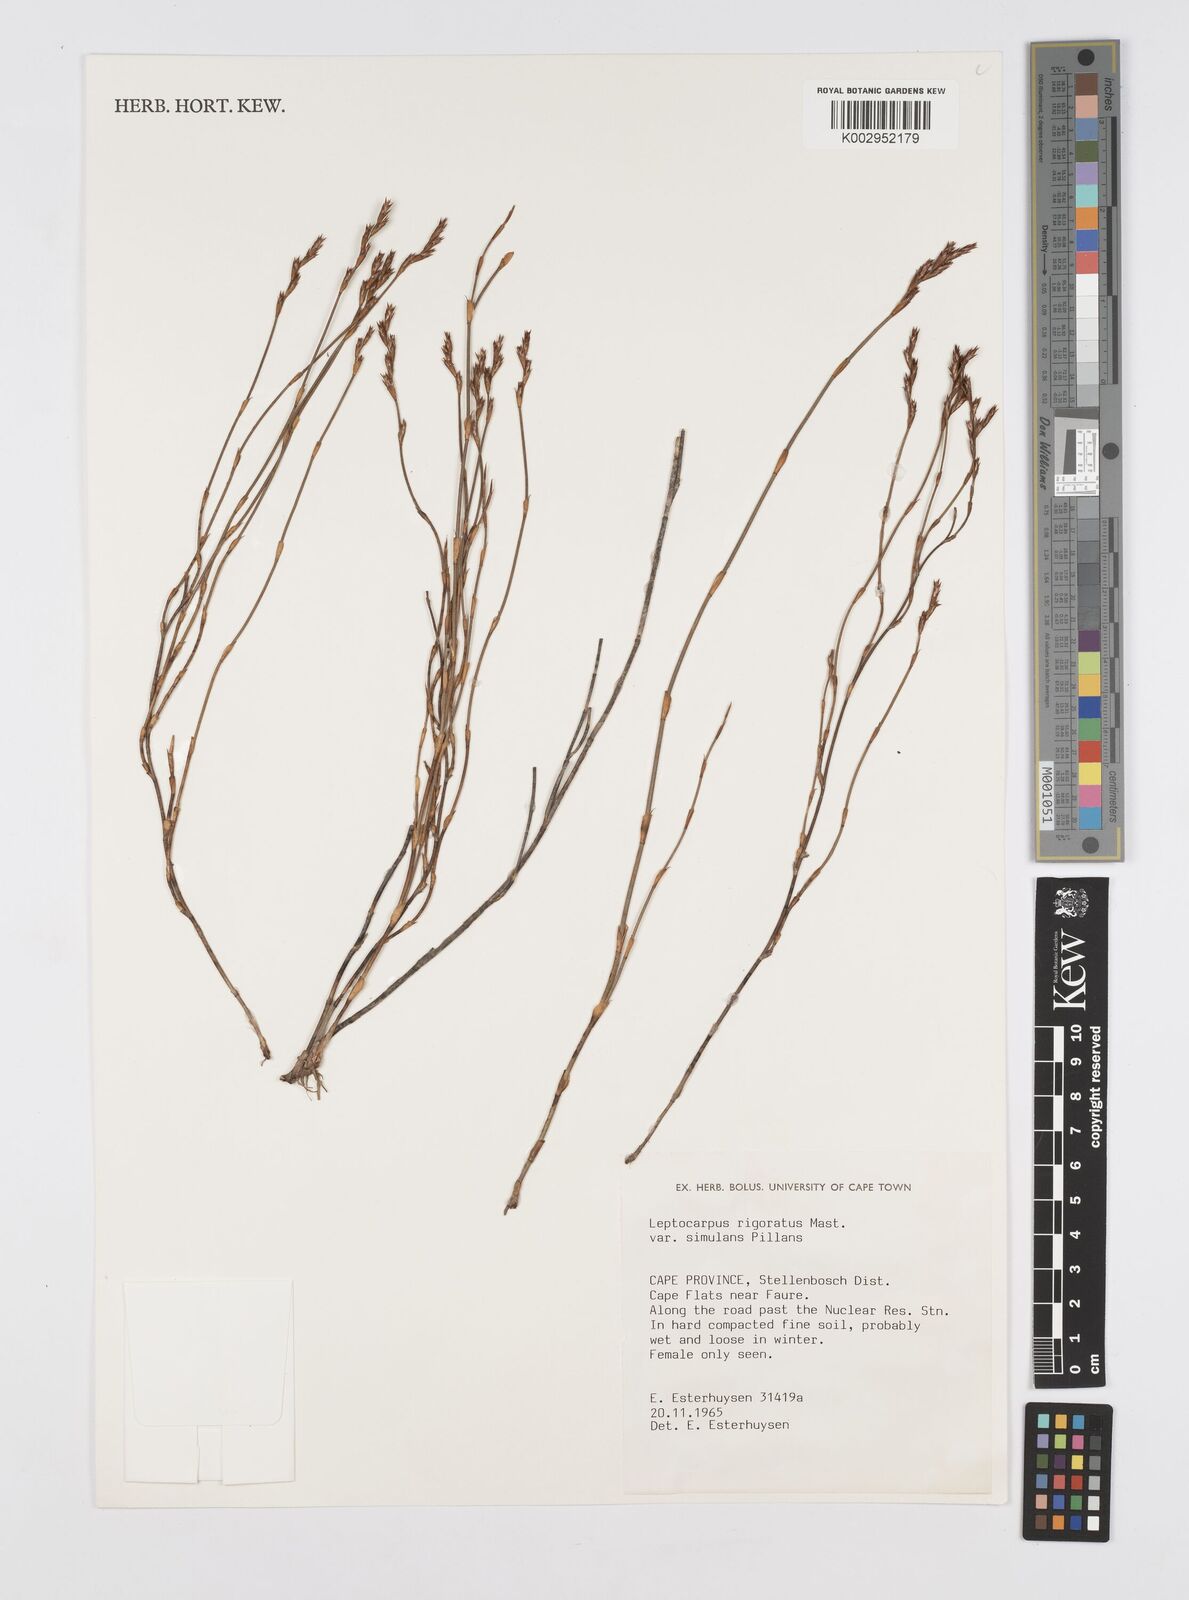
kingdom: Plantae
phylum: Tracheophyta
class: Liliopsida
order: Poales
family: Restionaceae
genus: Restio
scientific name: Restio rigoratus
